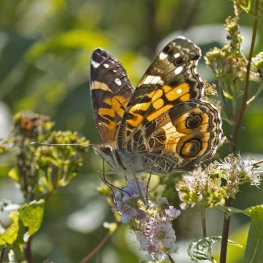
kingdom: Animalia
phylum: Arthropoda
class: Insecta
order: Lepidoptera
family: Nymphalidae
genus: Vanessa
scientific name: Vanessa virginiensis
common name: American Lady
